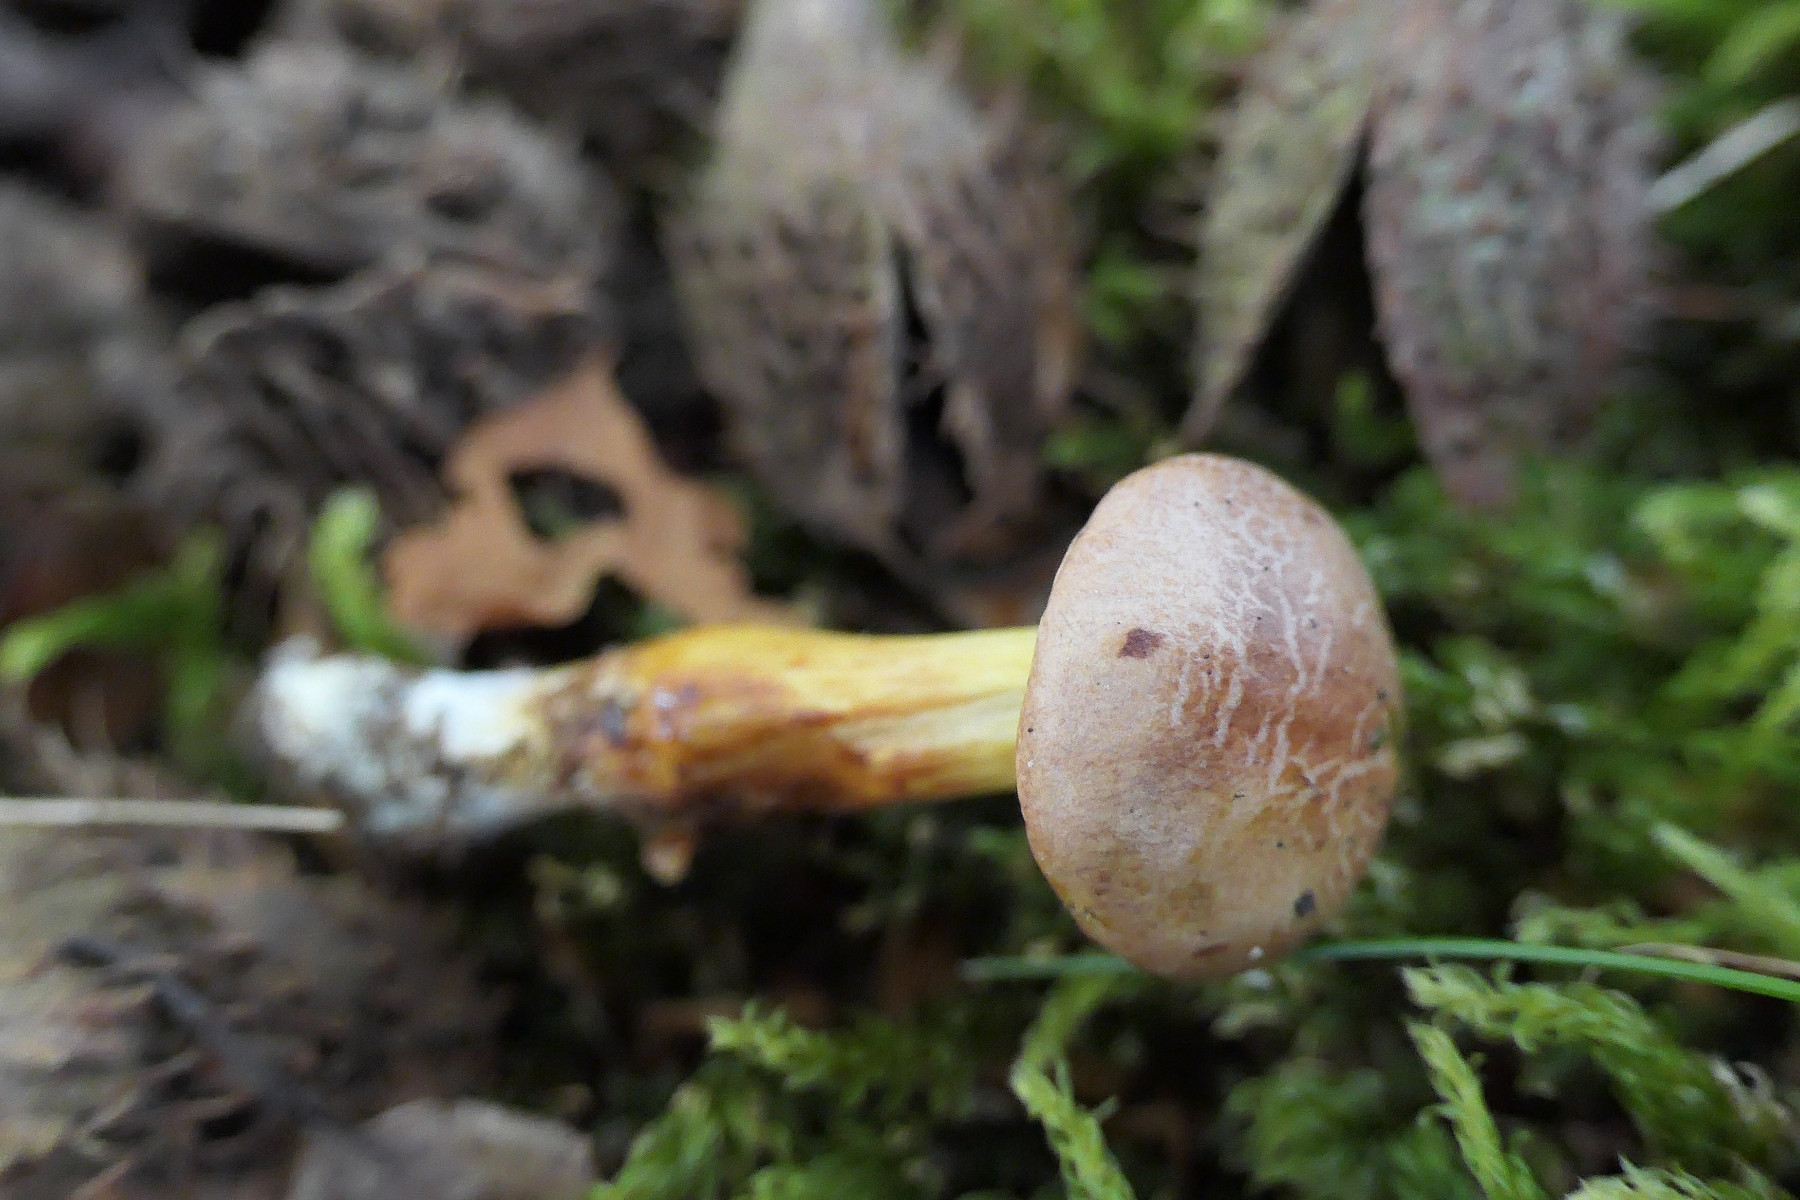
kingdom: Fungi
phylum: Basidiomycota
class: Agaricomycetes
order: Boletales
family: Boletaceae
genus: Aureoboletus
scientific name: Aureoboletus gentilis
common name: guldrørhat
